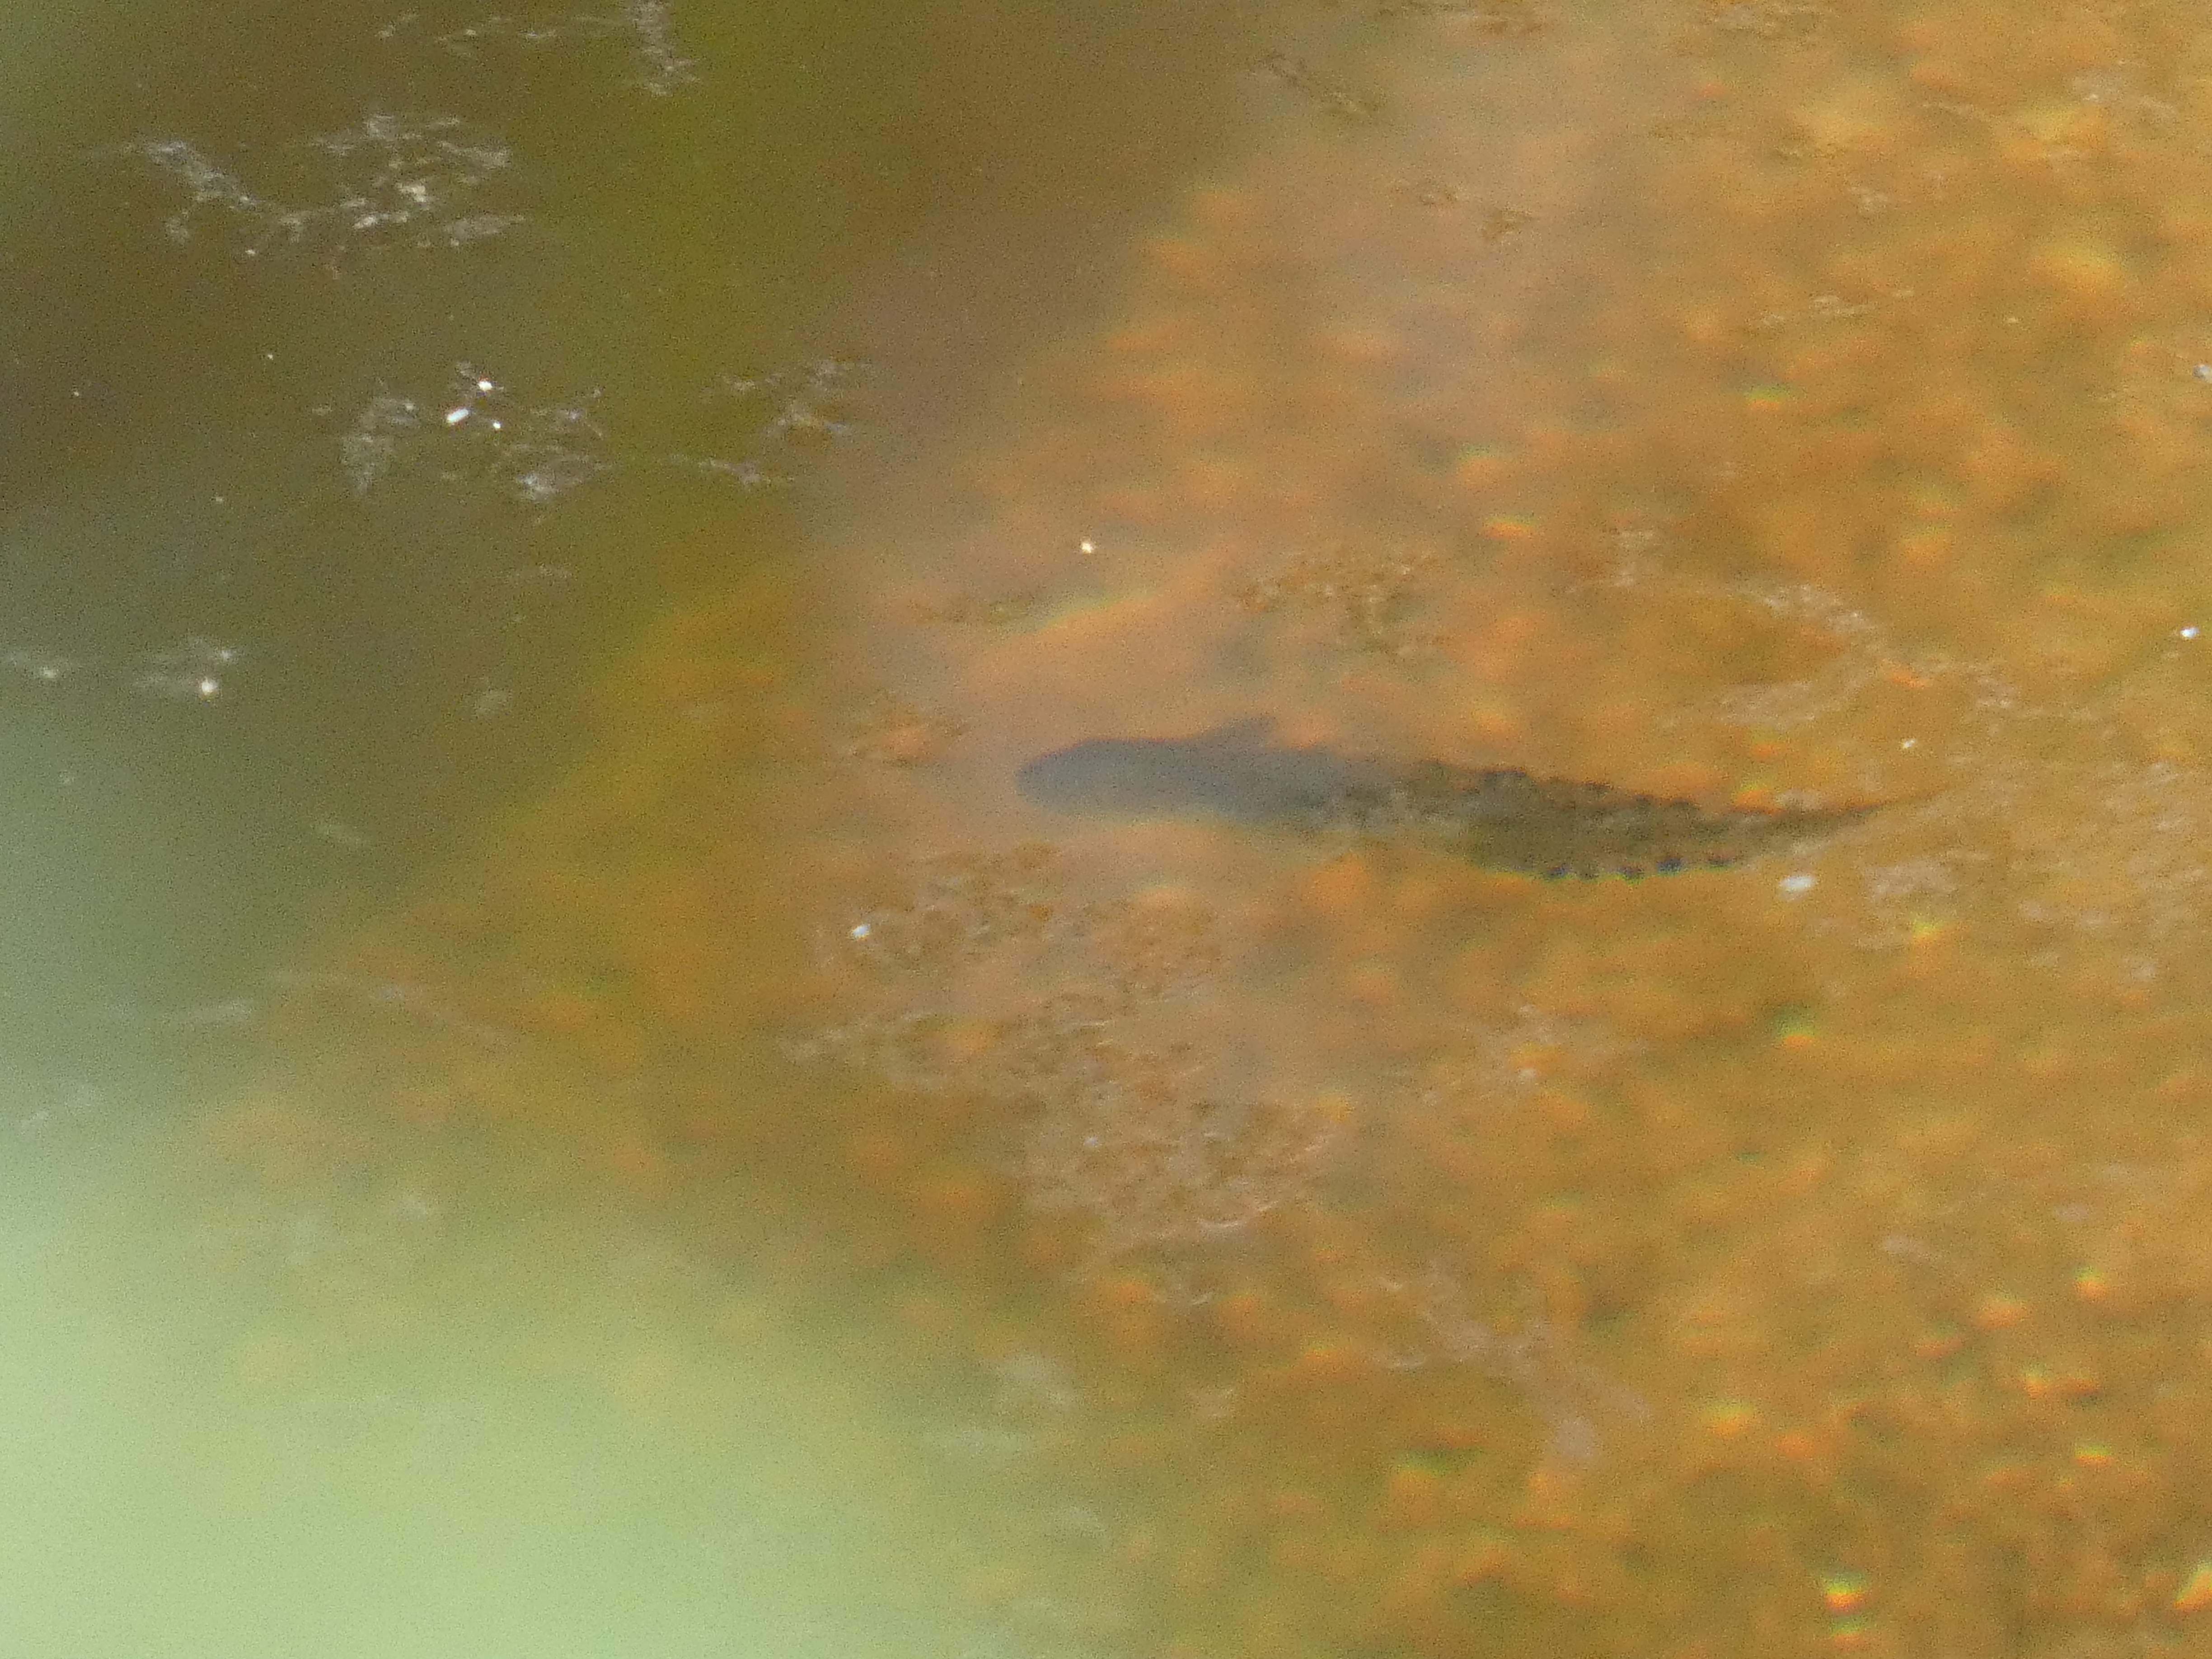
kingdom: Animalia
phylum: Chordata
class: Amphibia
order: Caudata
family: Salamandridae
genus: Triturus
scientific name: Triturus cristatus
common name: Stor vandsalamander
